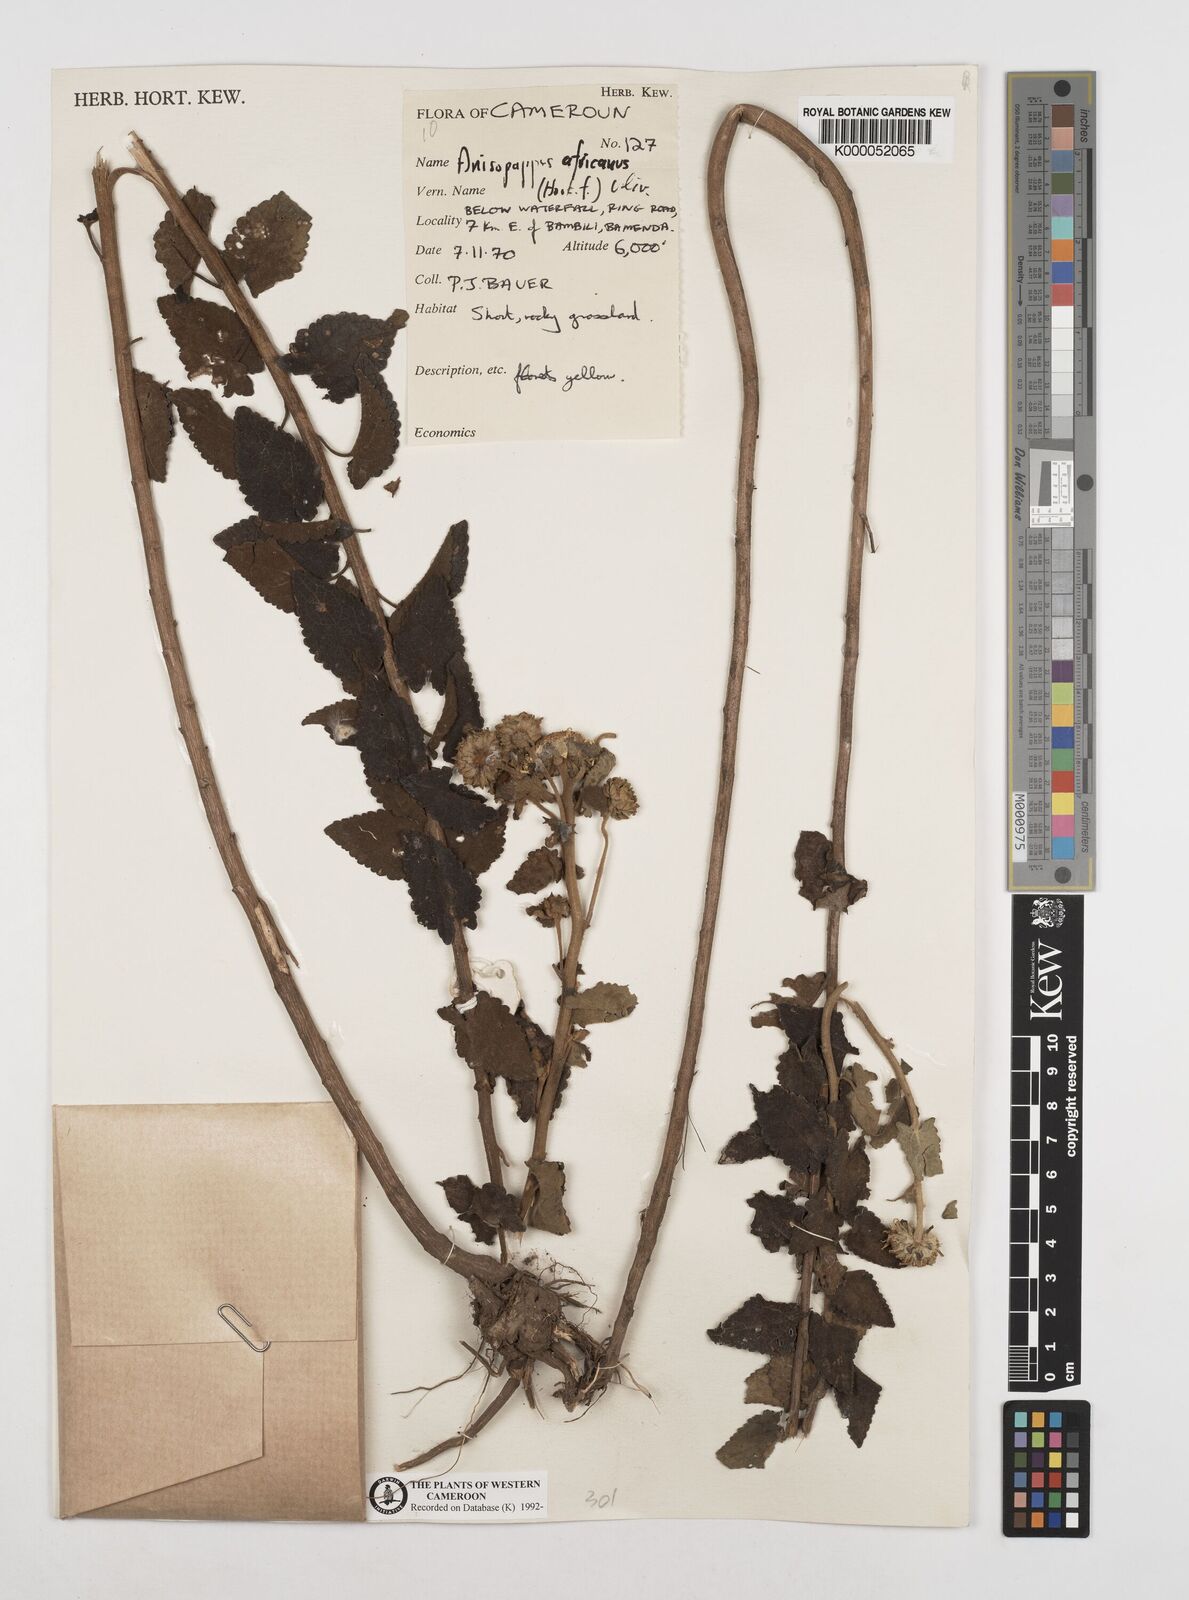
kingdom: Plantae
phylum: Tracheophyta
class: Magnoliopsida
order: Asterales
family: Asteraceae
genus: Anisopappus
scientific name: Anisopappus africanus
